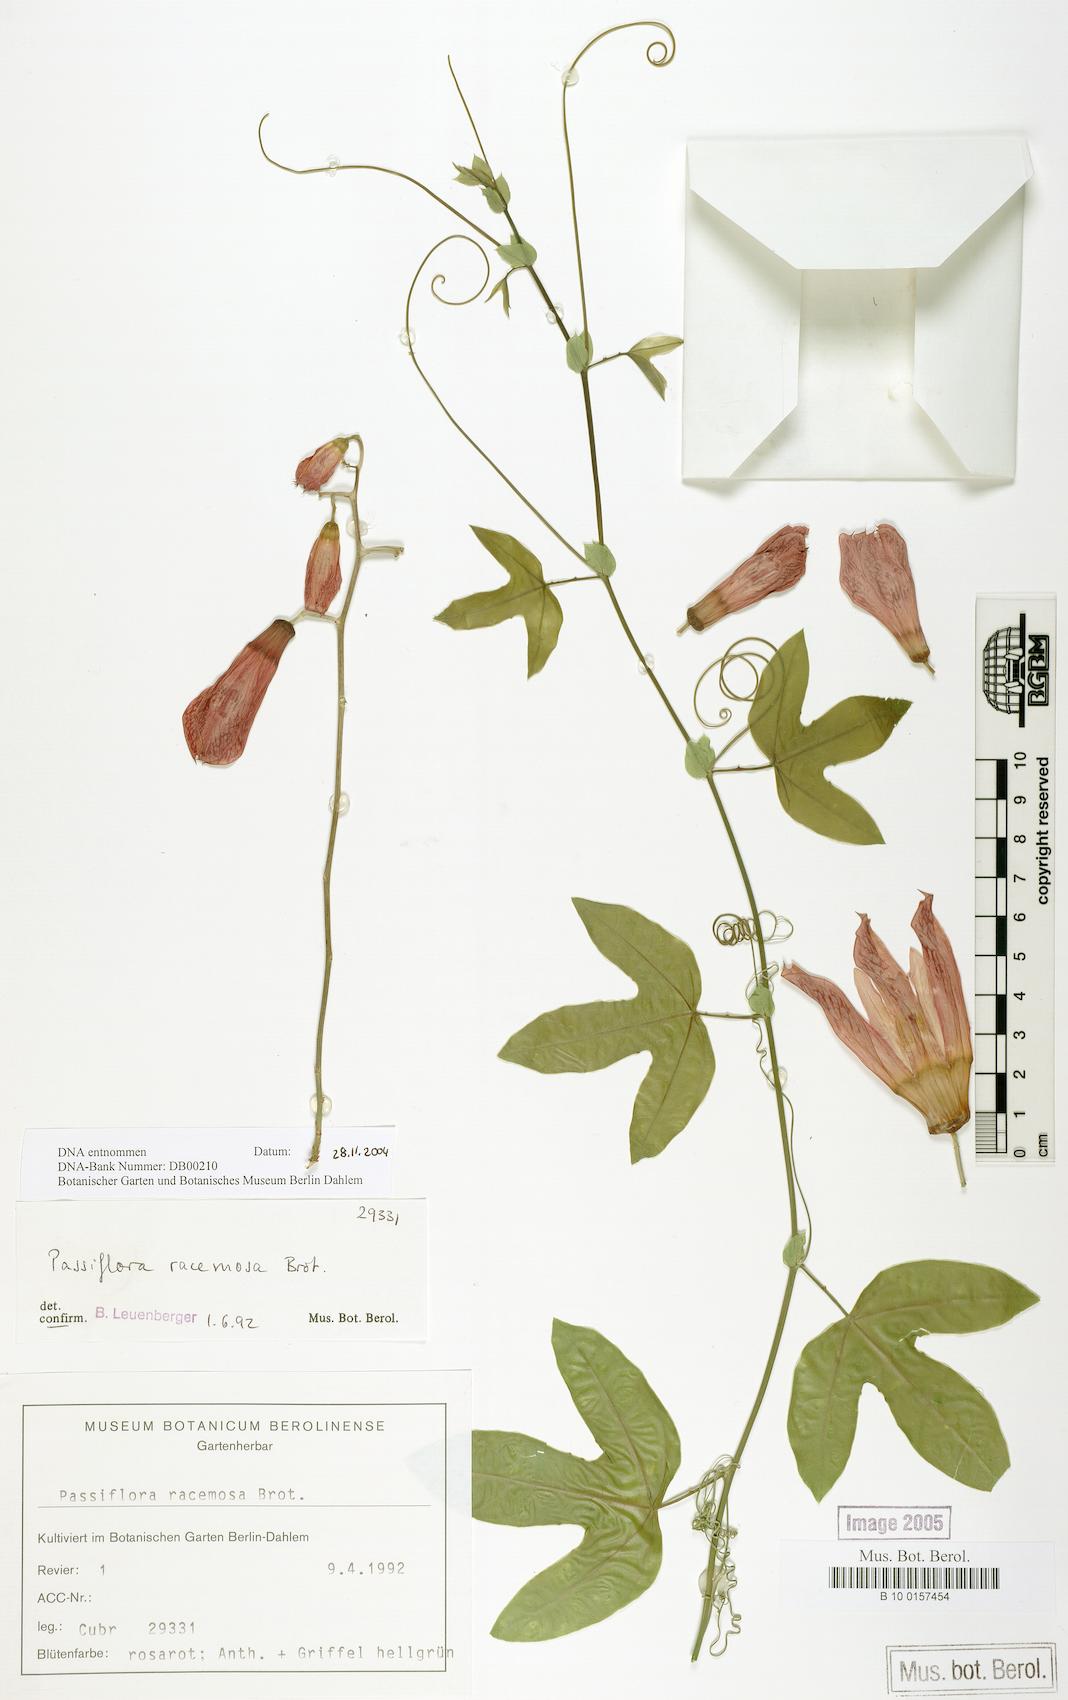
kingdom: Plantae
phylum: Tracheophyta
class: Magnoliopsida
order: Malpighiales
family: Passifloraceae
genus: Passiflora
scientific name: Passiflora racemosa
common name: Red passionflower
